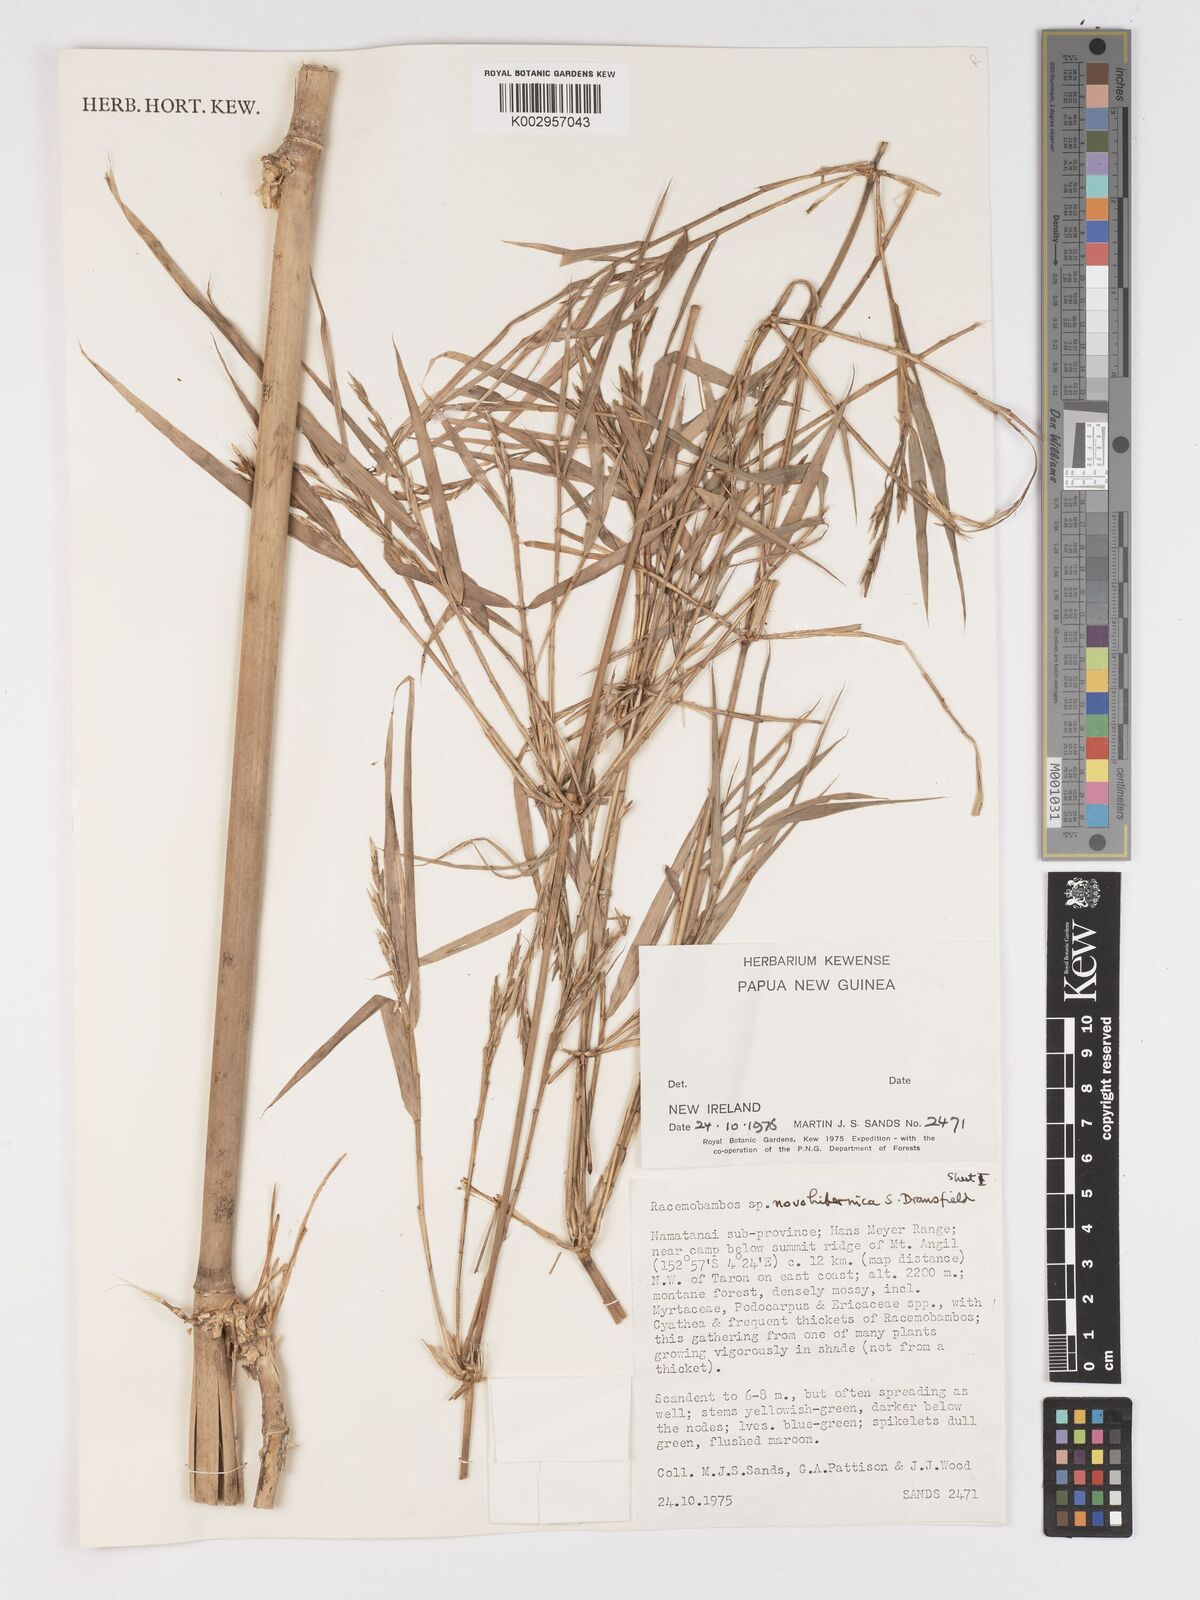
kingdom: Plantae
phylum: Tracheophyta
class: Liliopsida
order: Poales
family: Poaceae
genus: Racemobambos
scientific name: Racemobambos novohibernica
